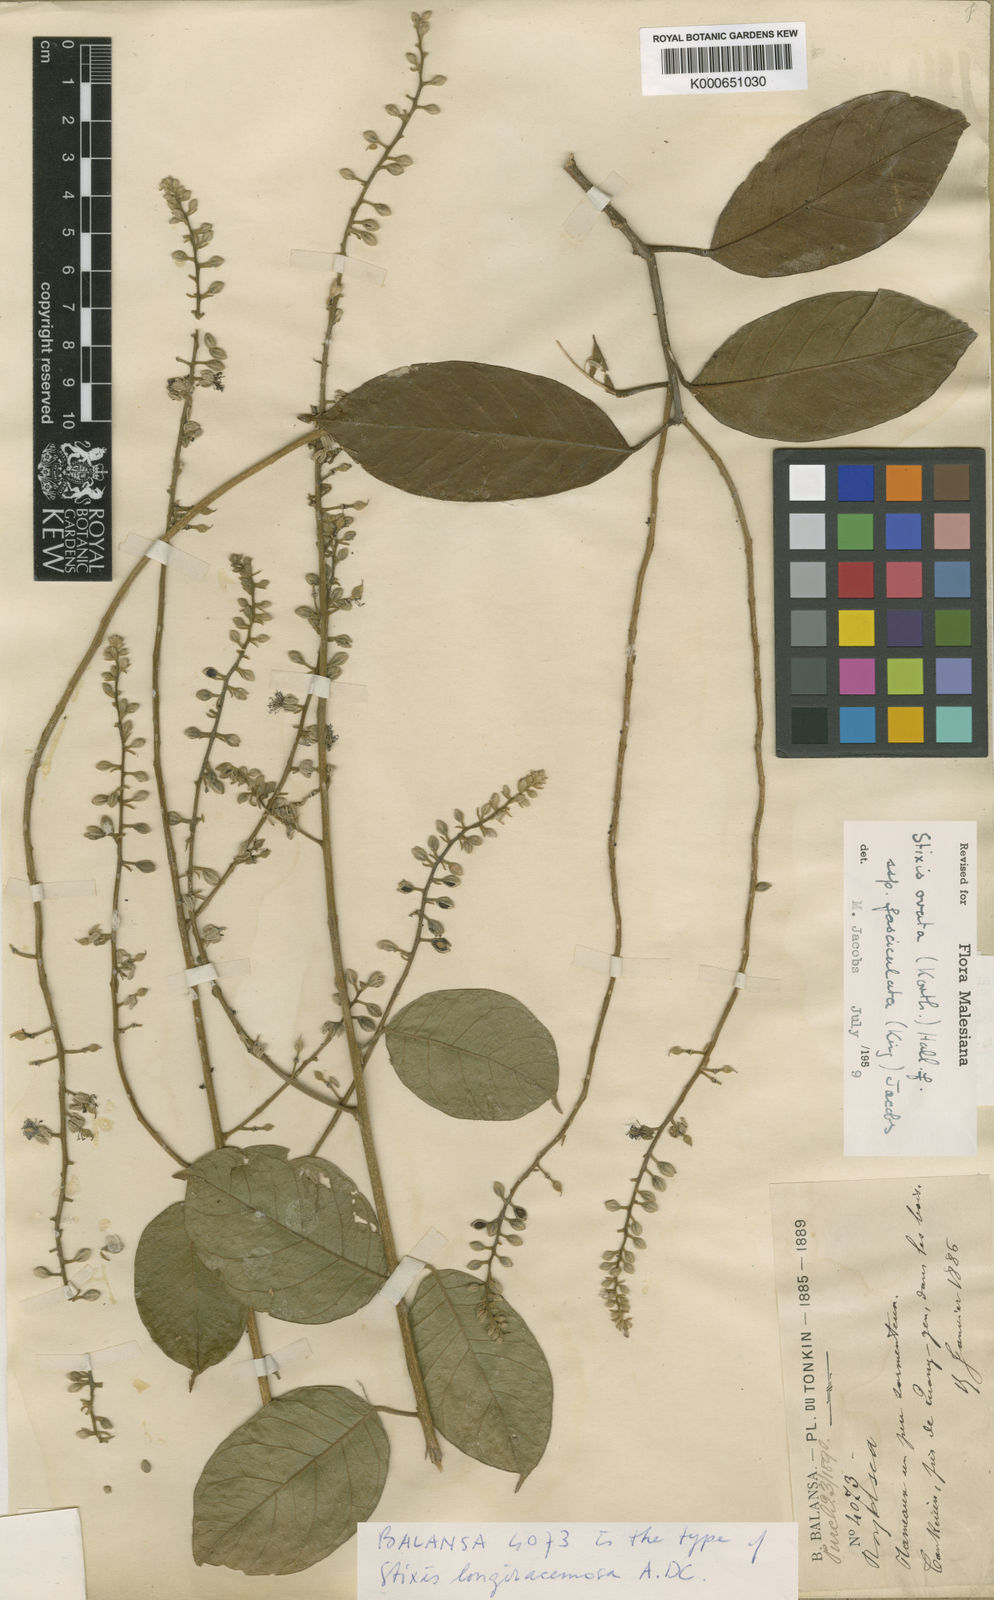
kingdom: Plantae
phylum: Tracheophyta
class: Magnoliopsida
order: Brassicales
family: Stixaceae
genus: Stixis
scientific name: Stixis ovata
